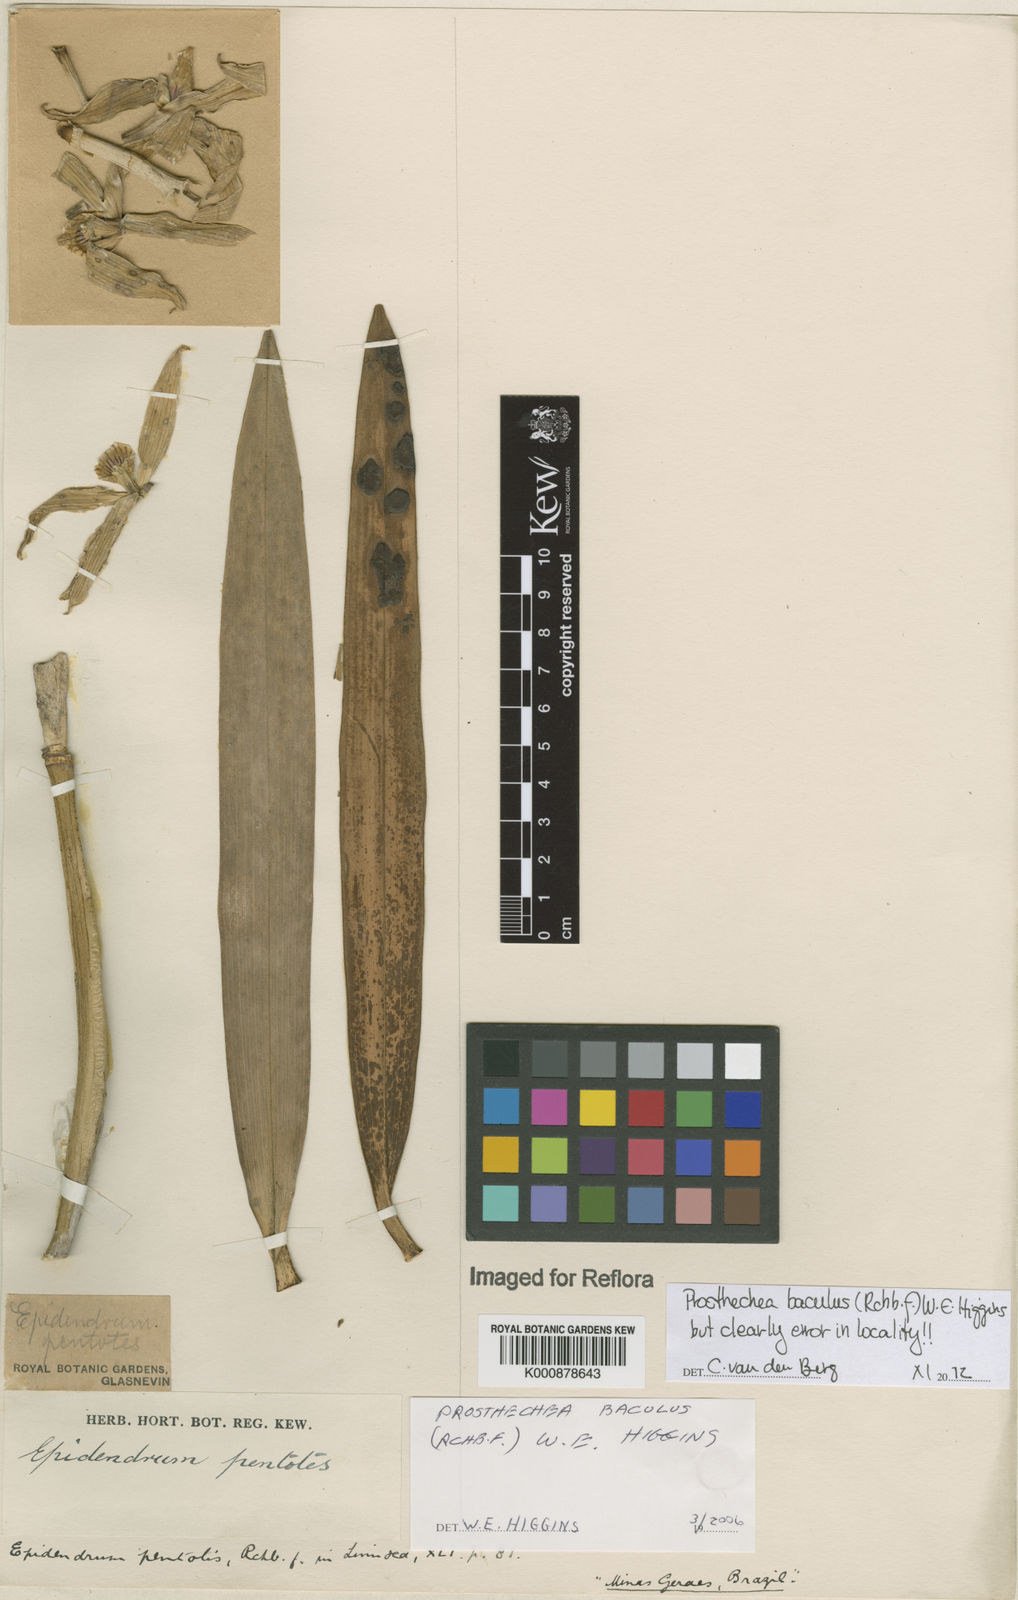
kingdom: Plantae
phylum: Tracheophyta
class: Liliopsida
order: Asparagales
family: Orchidaceae
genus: Prosthechea
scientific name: Prosthechea baculus
